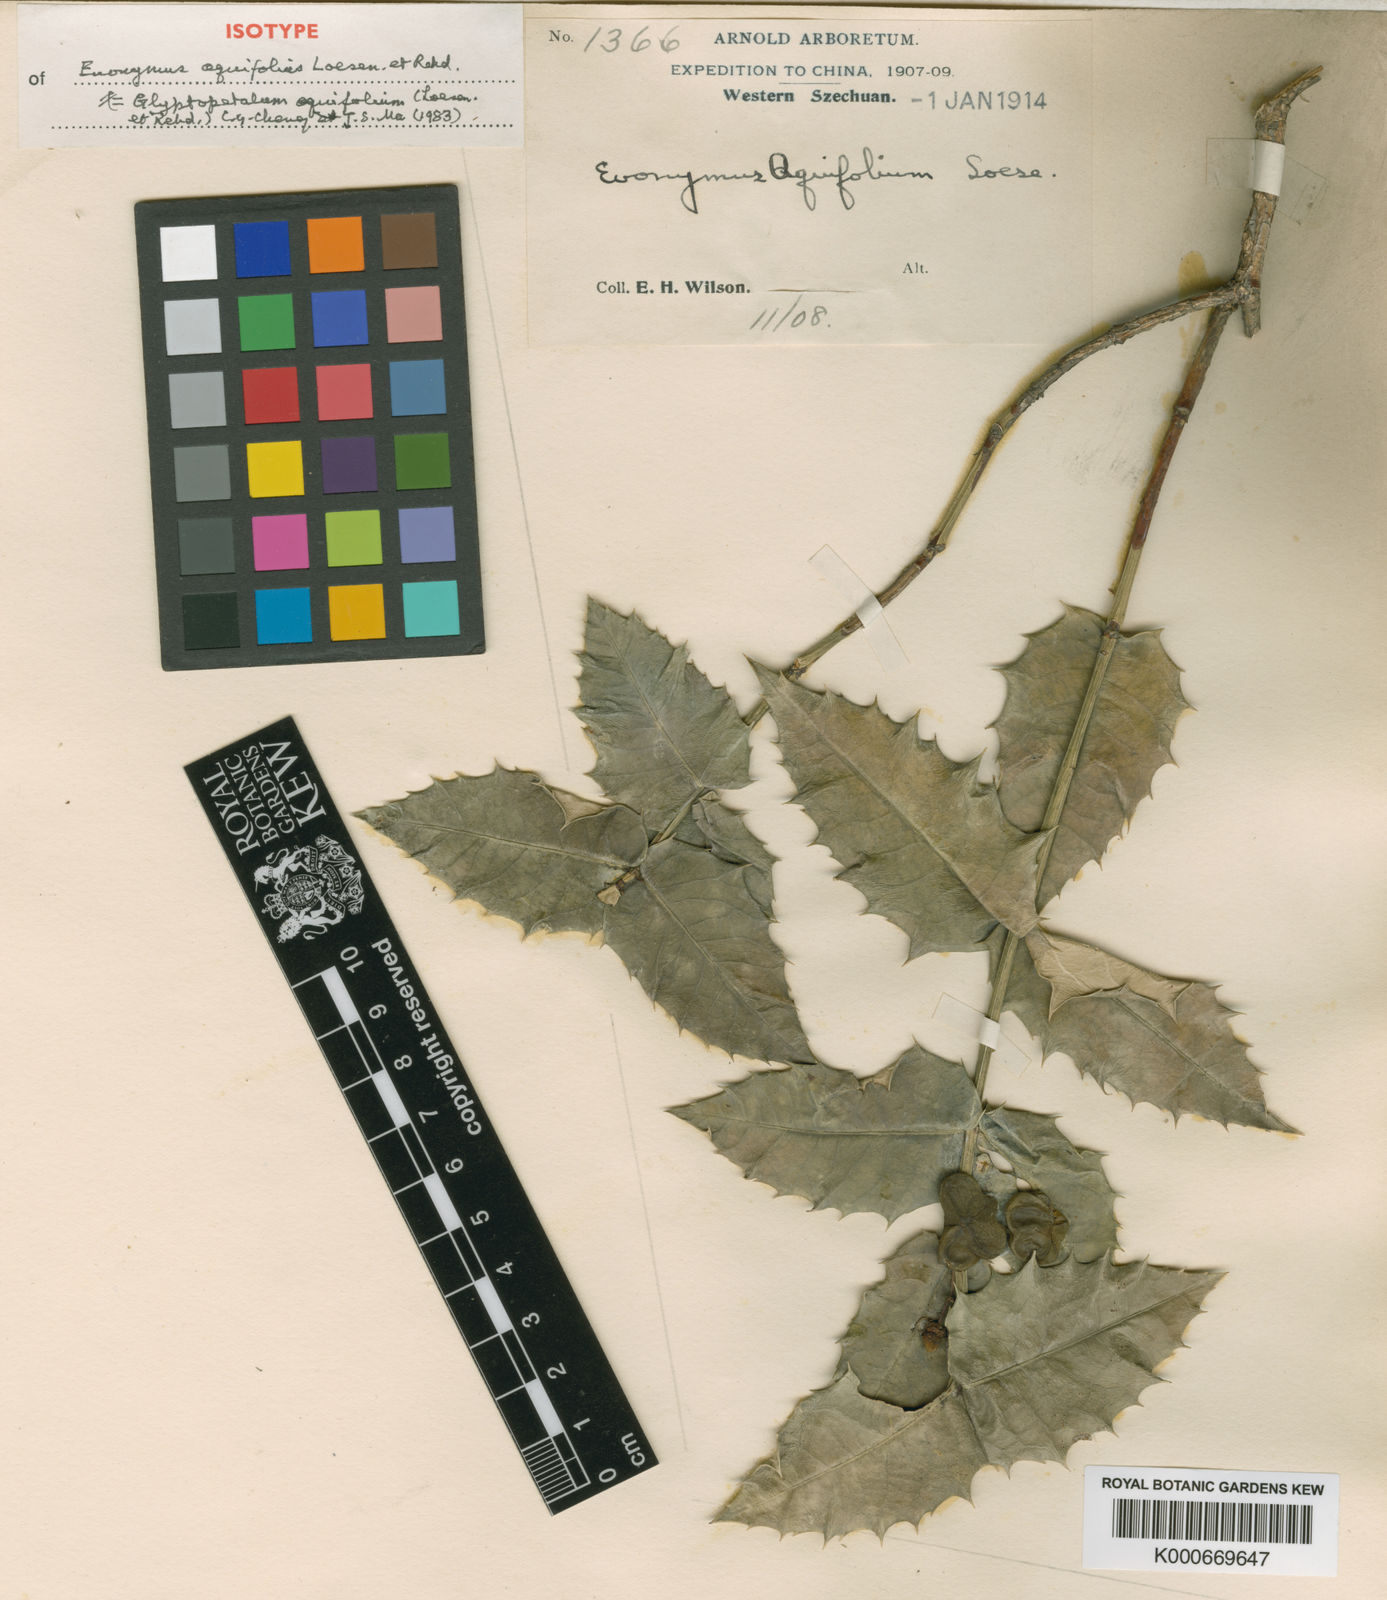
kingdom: Plantae
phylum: Tracheophyta
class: Magnoliopsida
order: Celastrales
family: Celastraceae
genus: Euonymus
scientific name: Euonymus aquifolium
